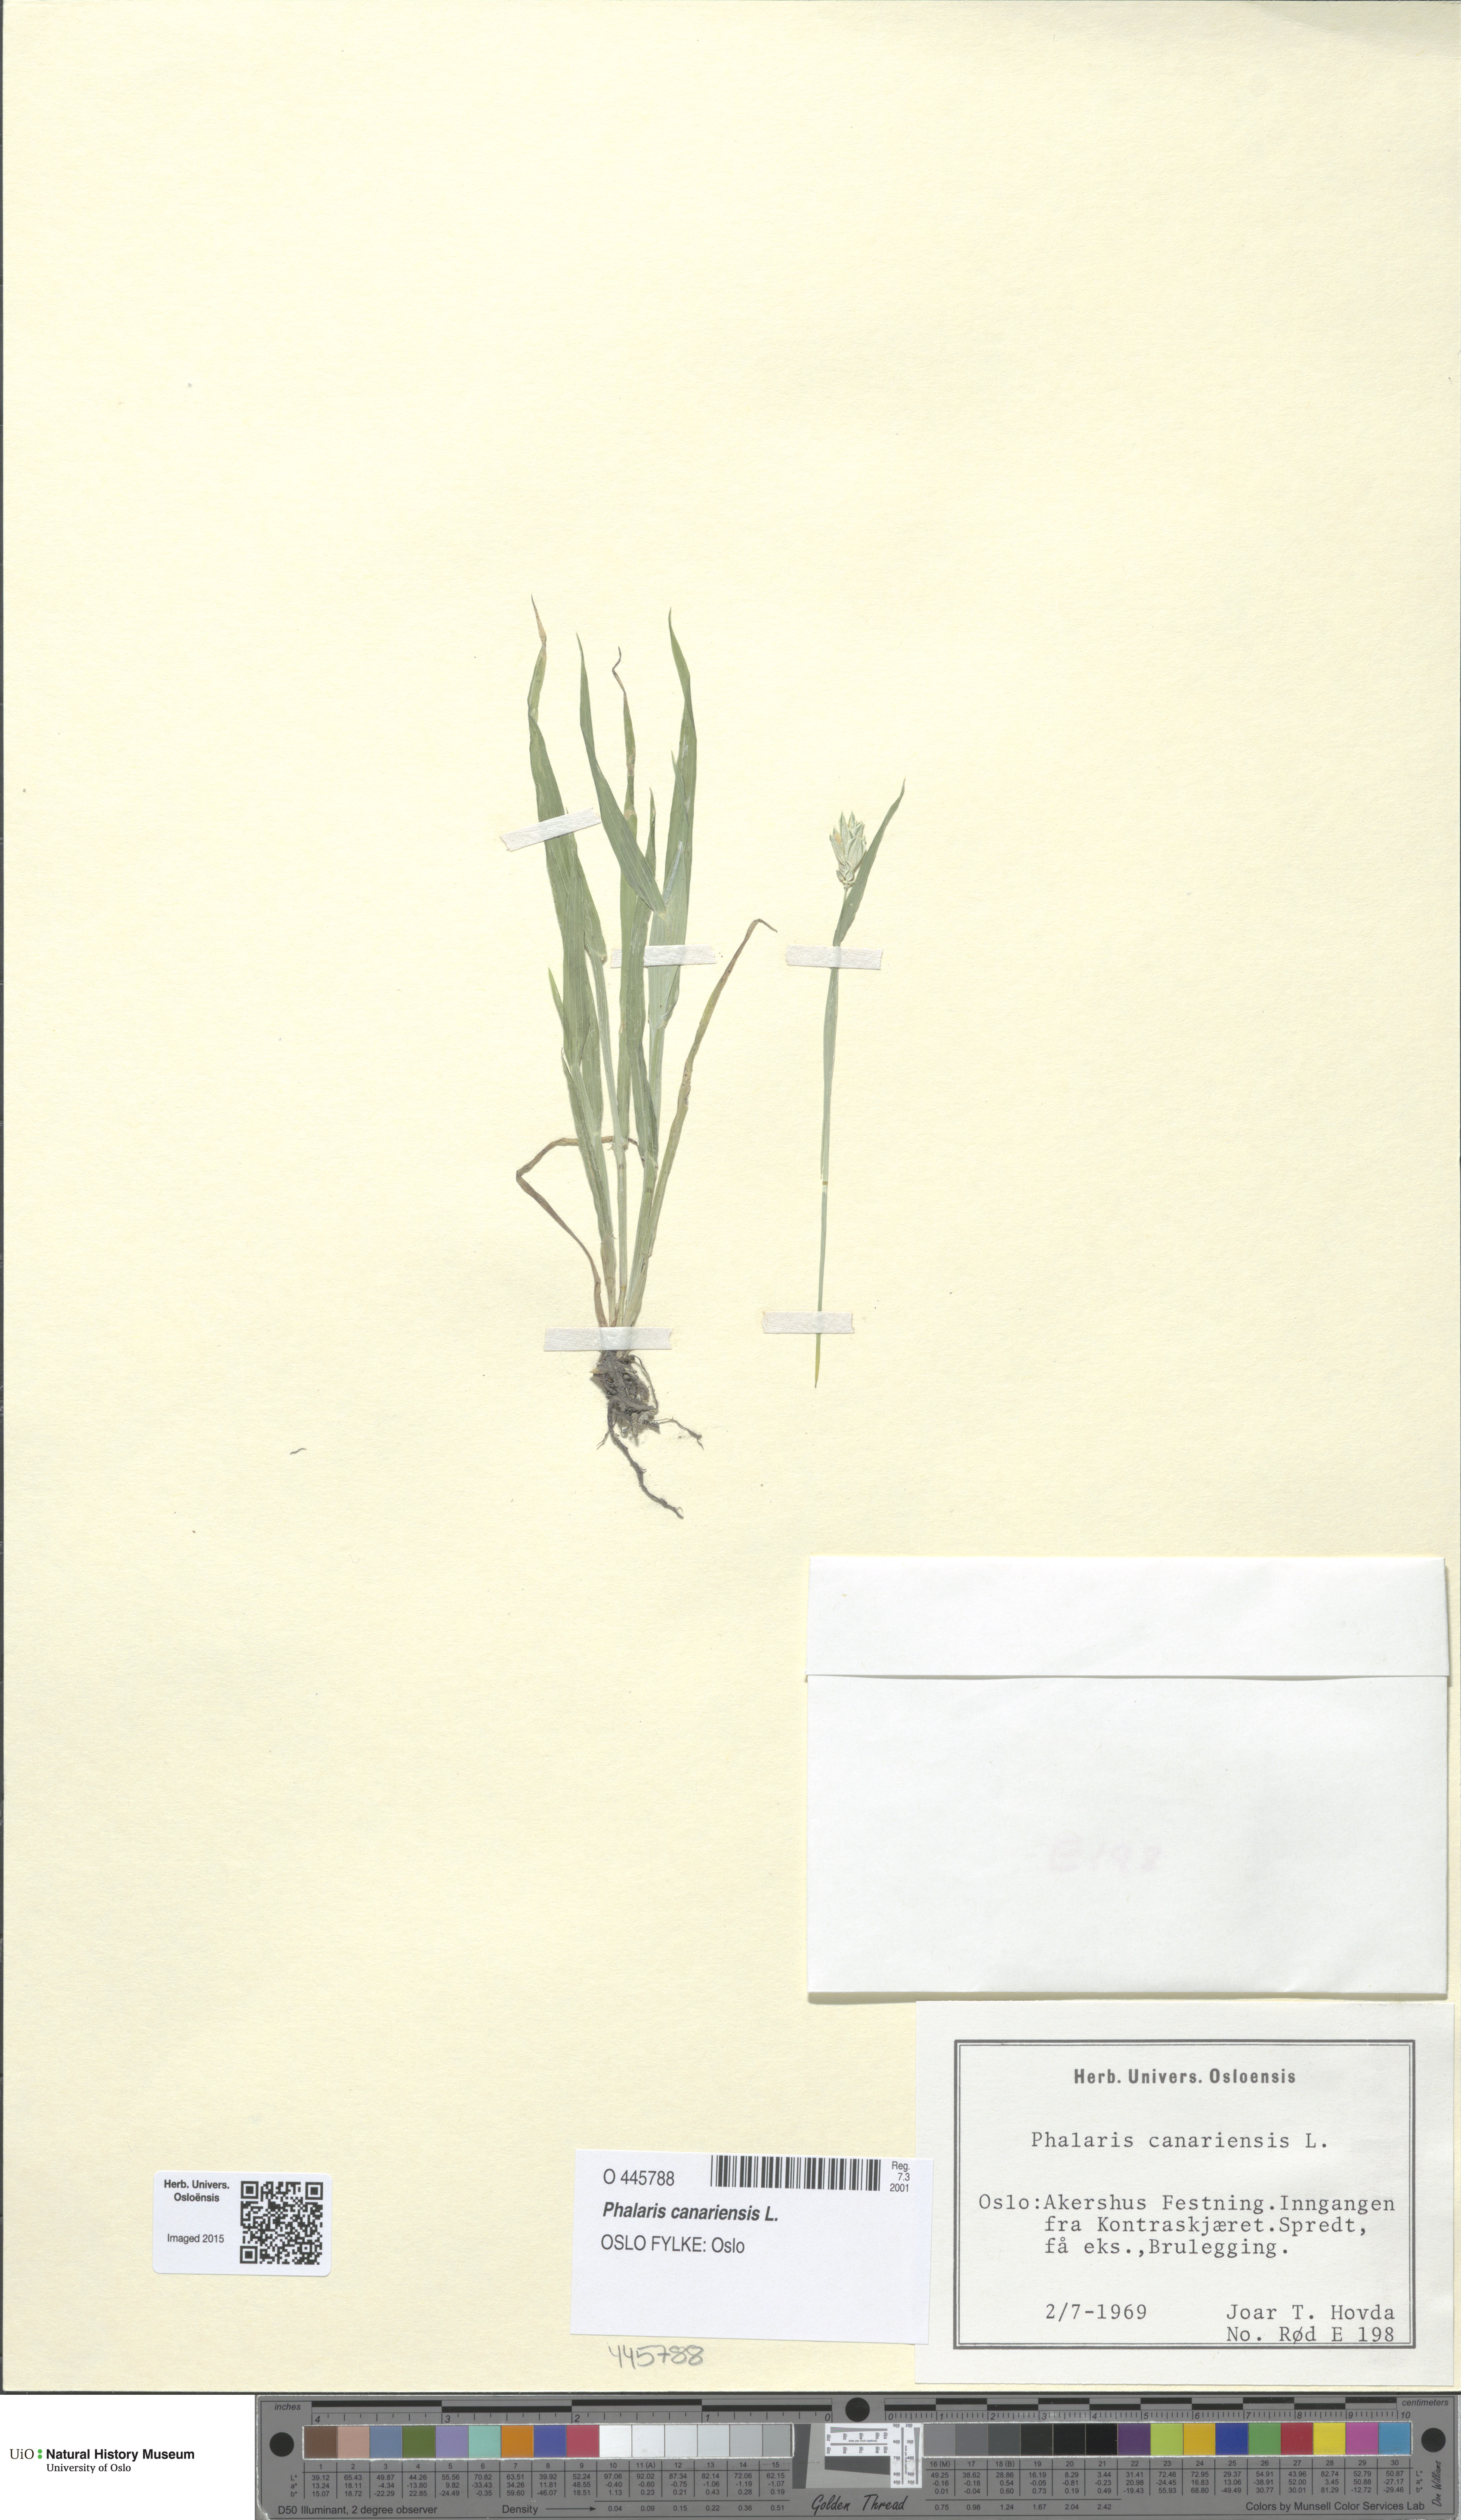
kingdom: Plantae
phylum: Tracheophyta
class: Liliopsida
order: Poales
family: Poaceae
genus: Phalaris
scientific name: Phalaris canariensis
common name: Annual canarygrass
